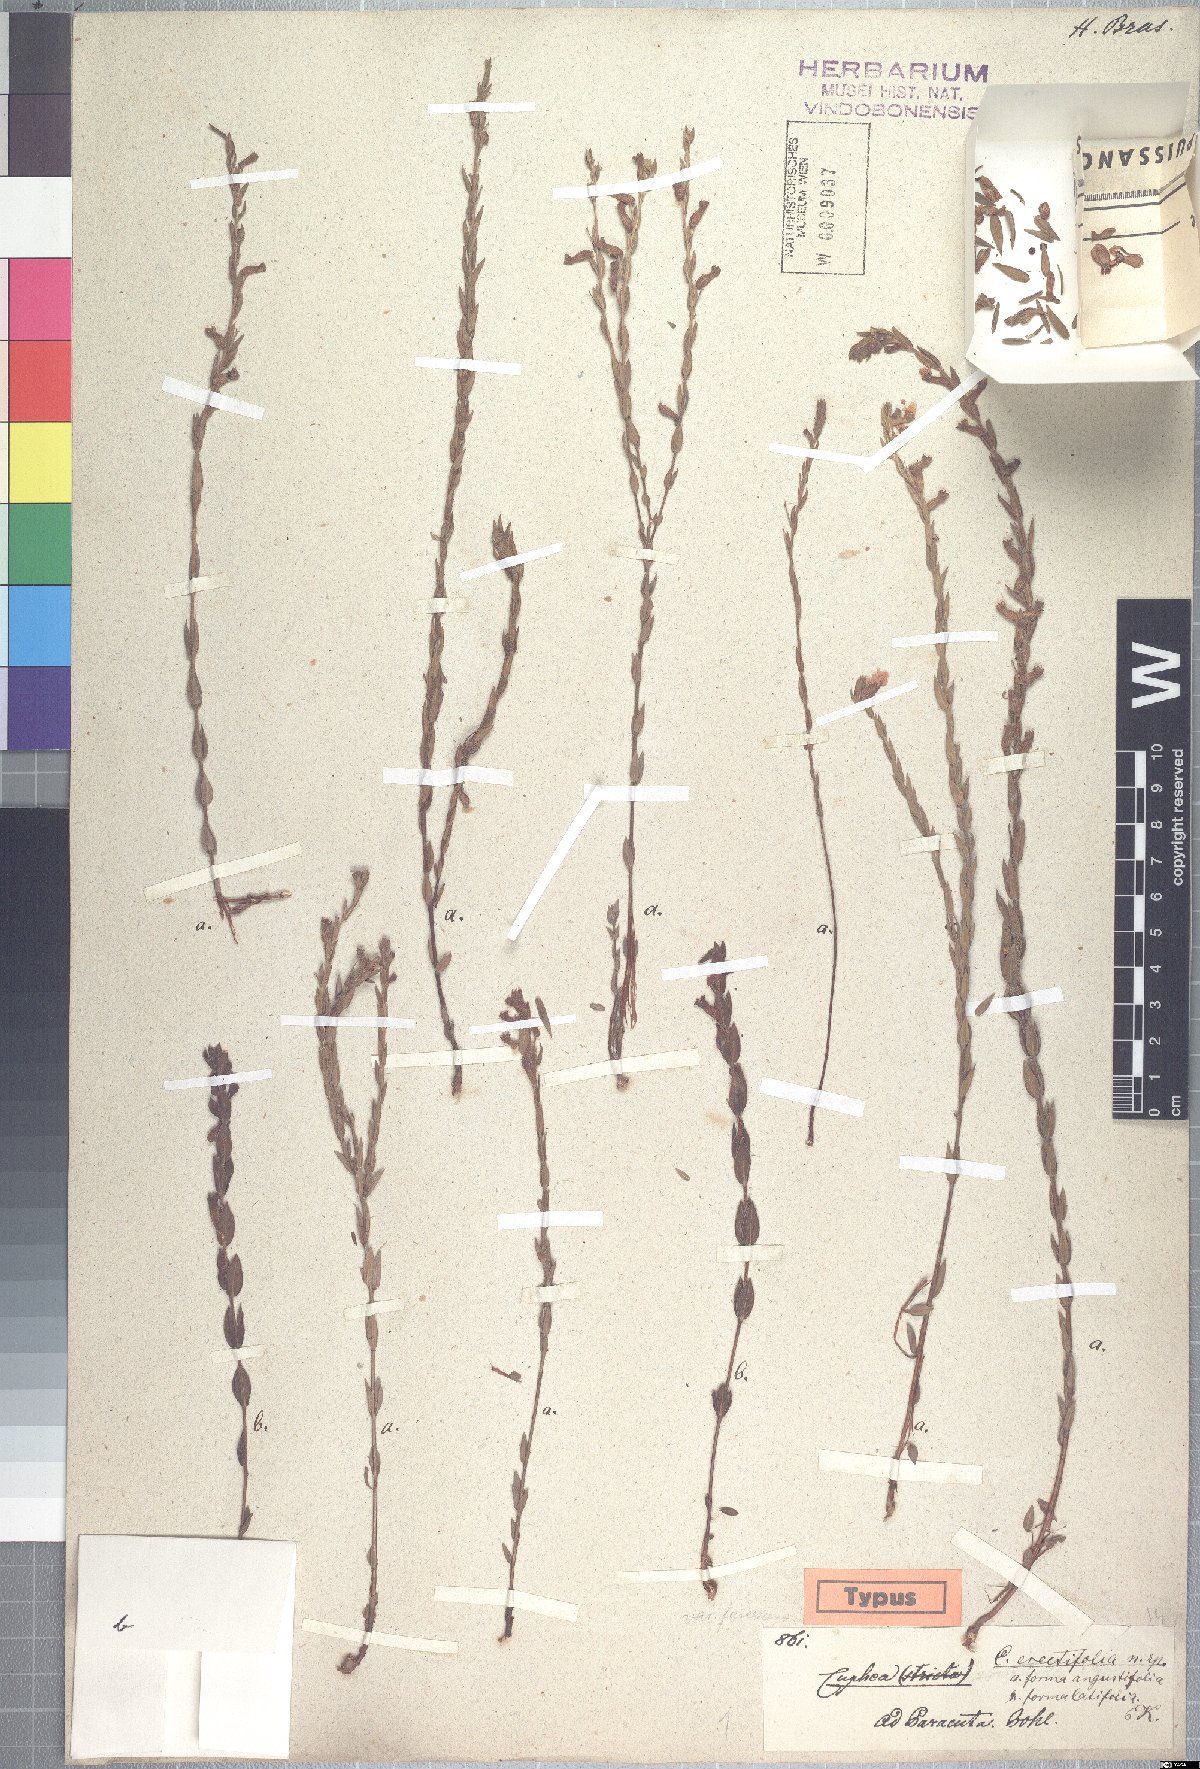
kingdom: Plantae
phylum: Tracheophyta
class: Magnoliopsida
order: Myrtales
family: Lythraceae
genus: Cuphea
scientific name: Cuphea spermacoce
